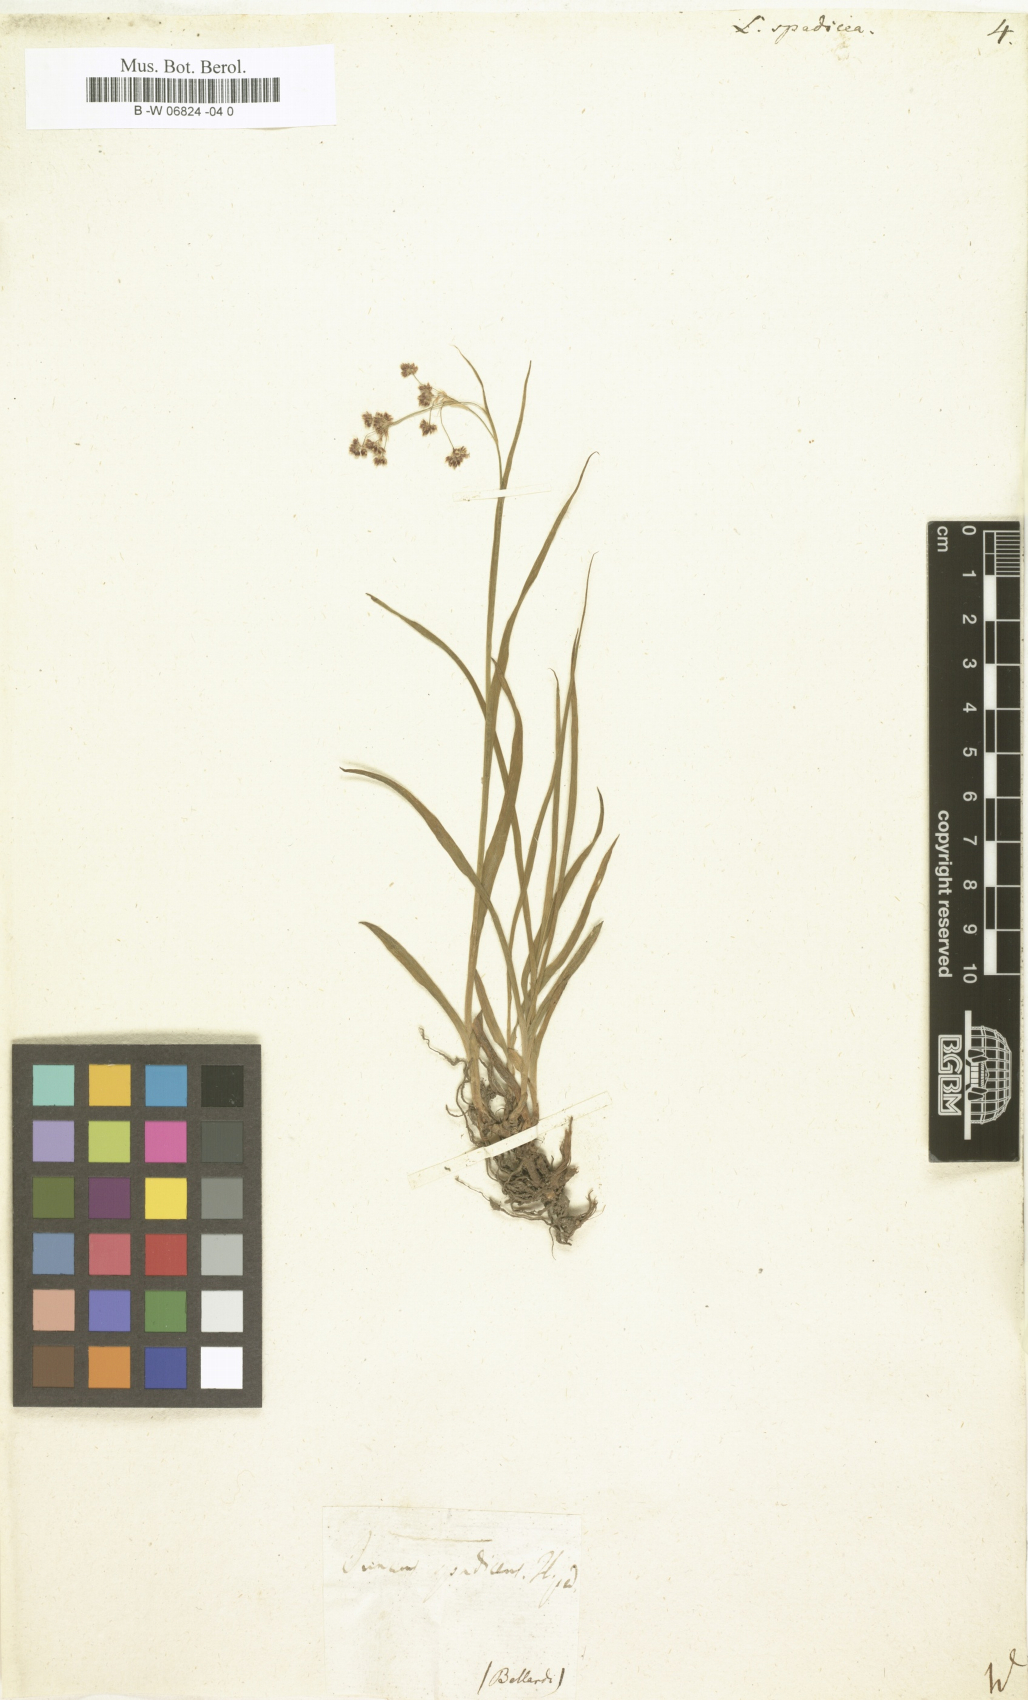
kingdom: Plantae
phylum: Tracheophyta
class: Liliopsida
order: Poales
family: Juncaceae
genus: Luzula
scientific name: Luzula
